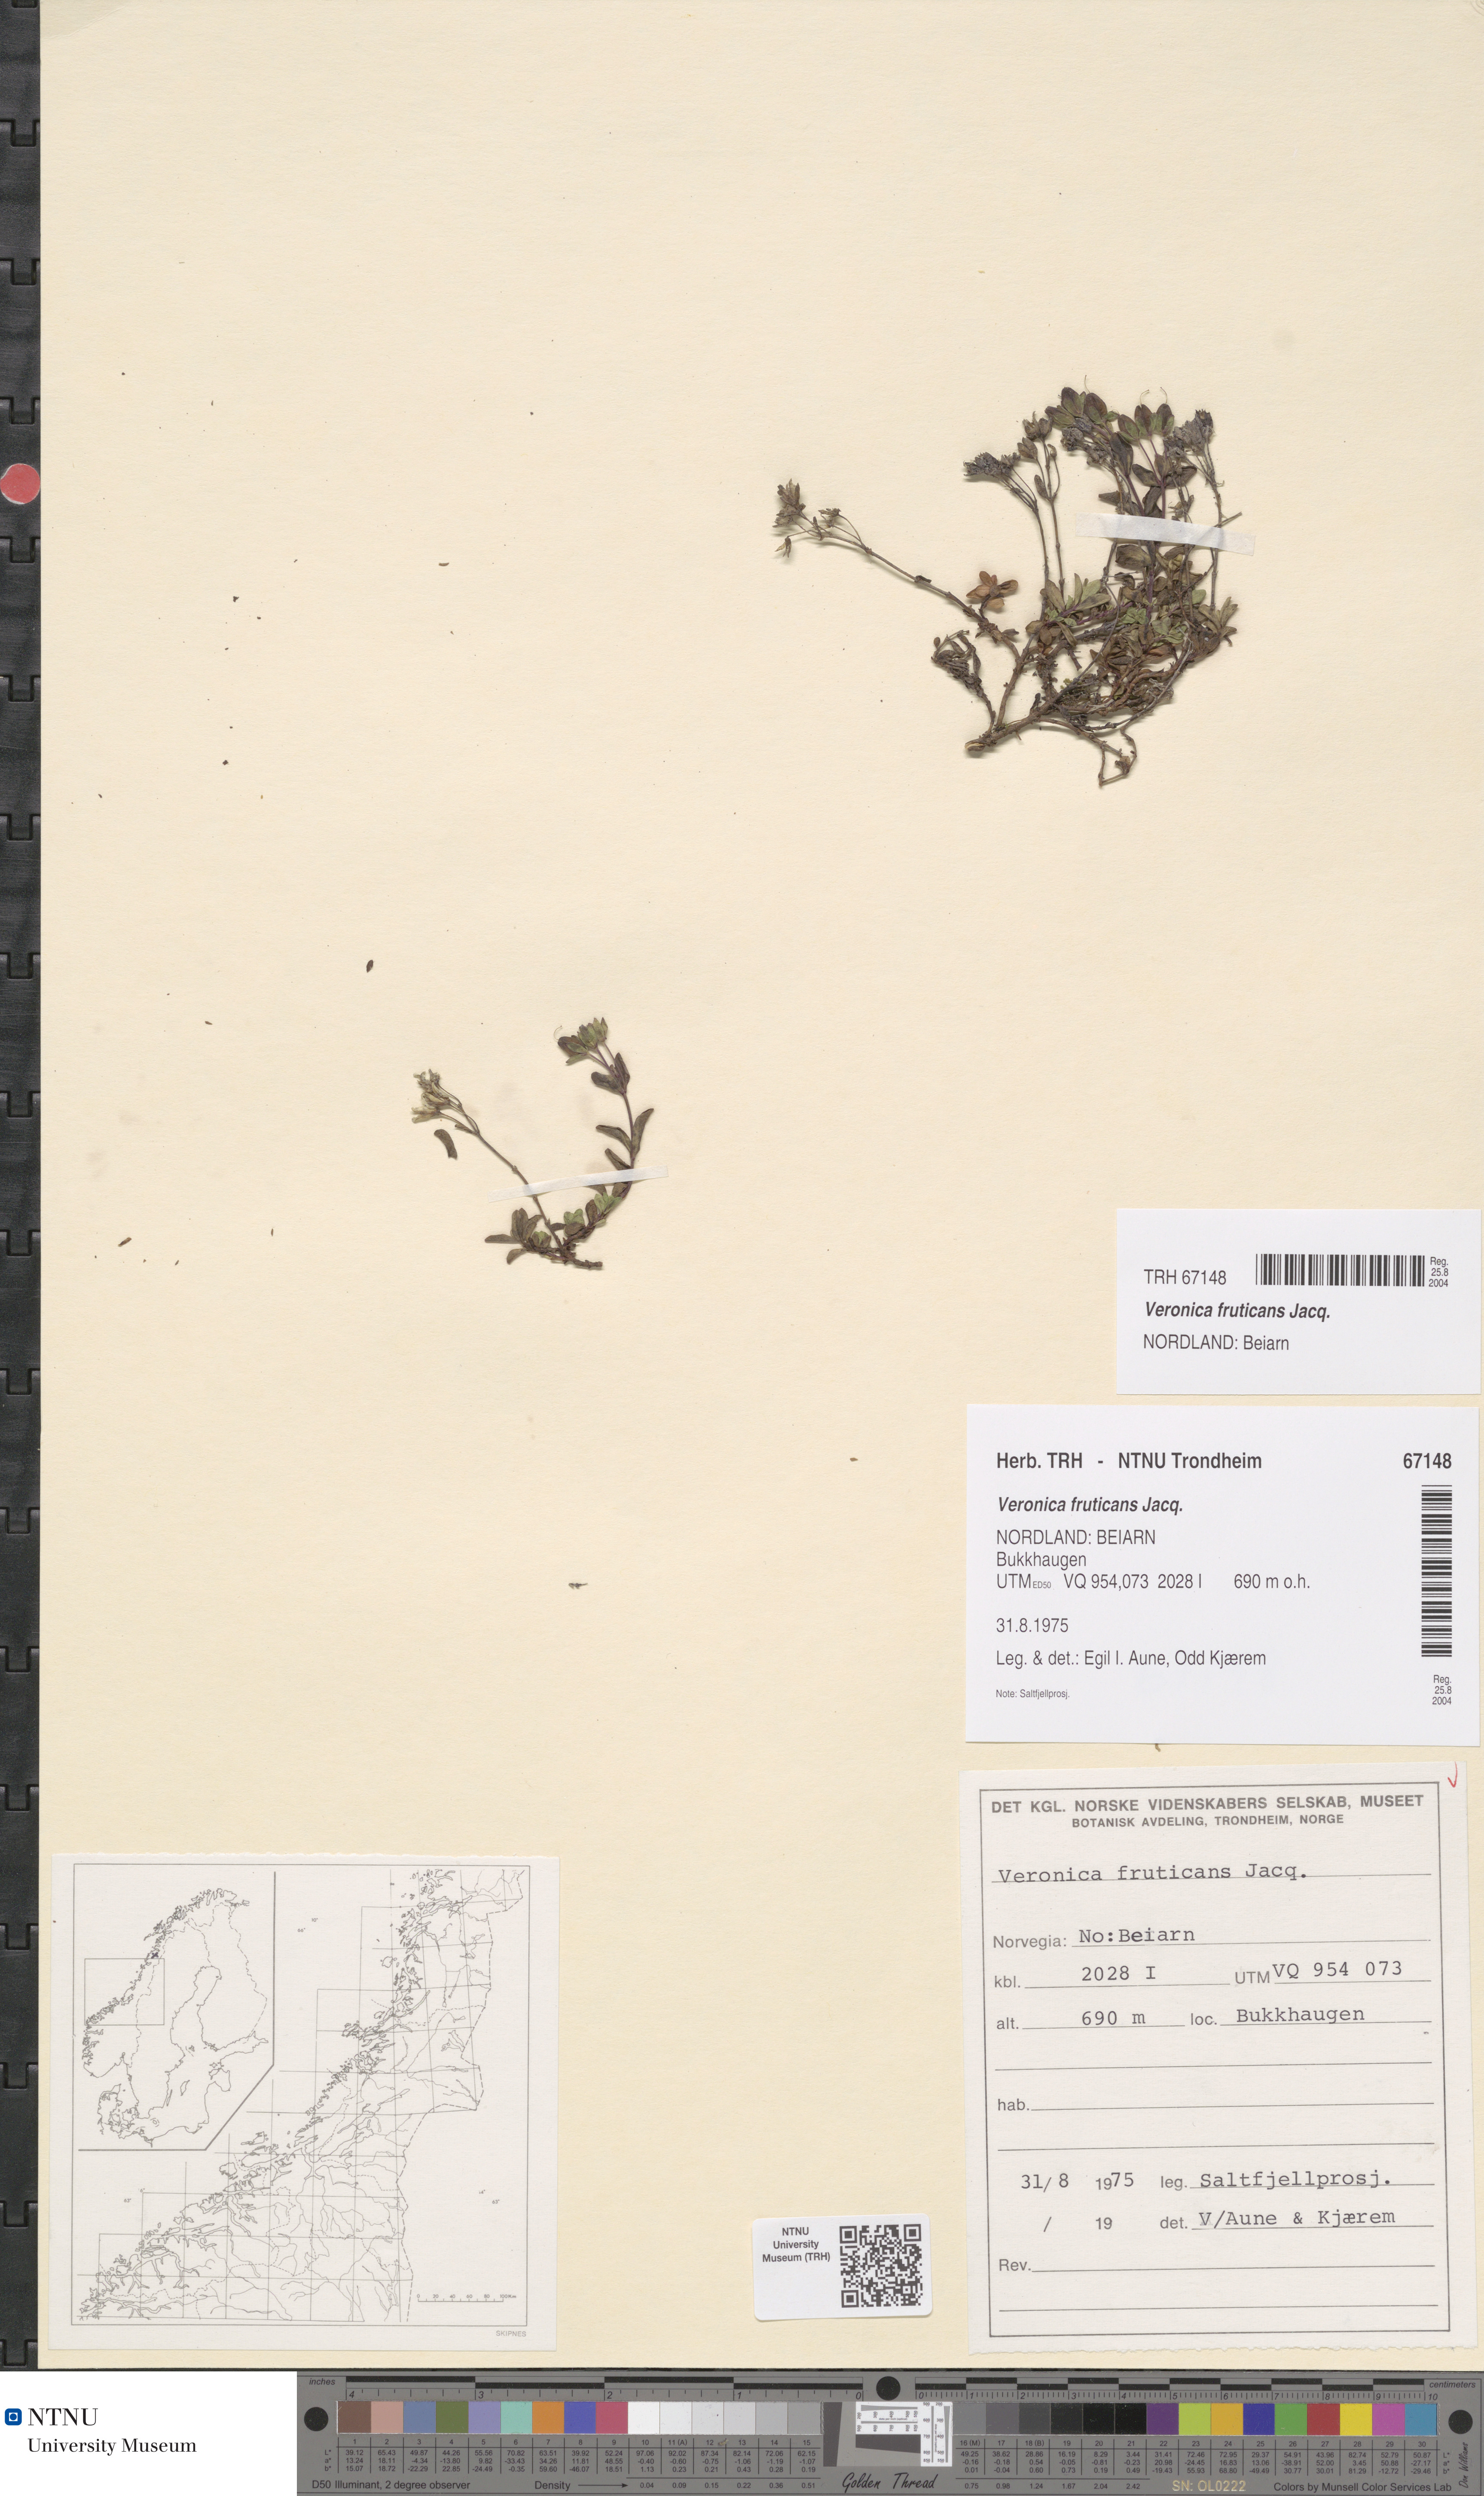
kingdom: Plantae
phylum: Tracheophyta
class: Magnoliopsida
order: Lamiales
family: Plantaginaceae
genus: Veronica
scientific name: Veronica fruticans
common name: Rock speedwell
